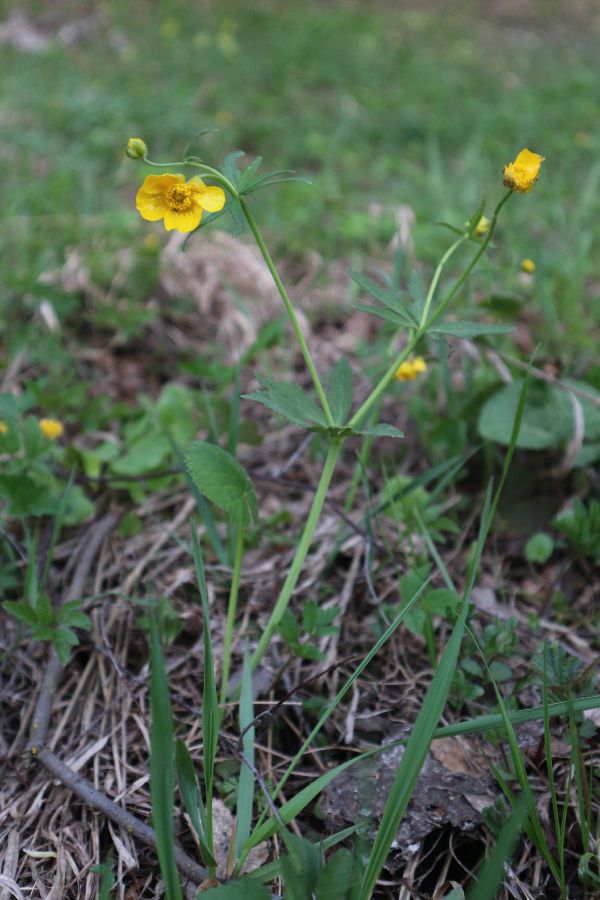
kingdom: Plantae
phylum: Tracheophyta
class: Magnoliopsida
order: Ranunculales
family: Ranunculaceae
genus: Ranunculus
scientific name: Ranunculus cassubicus
